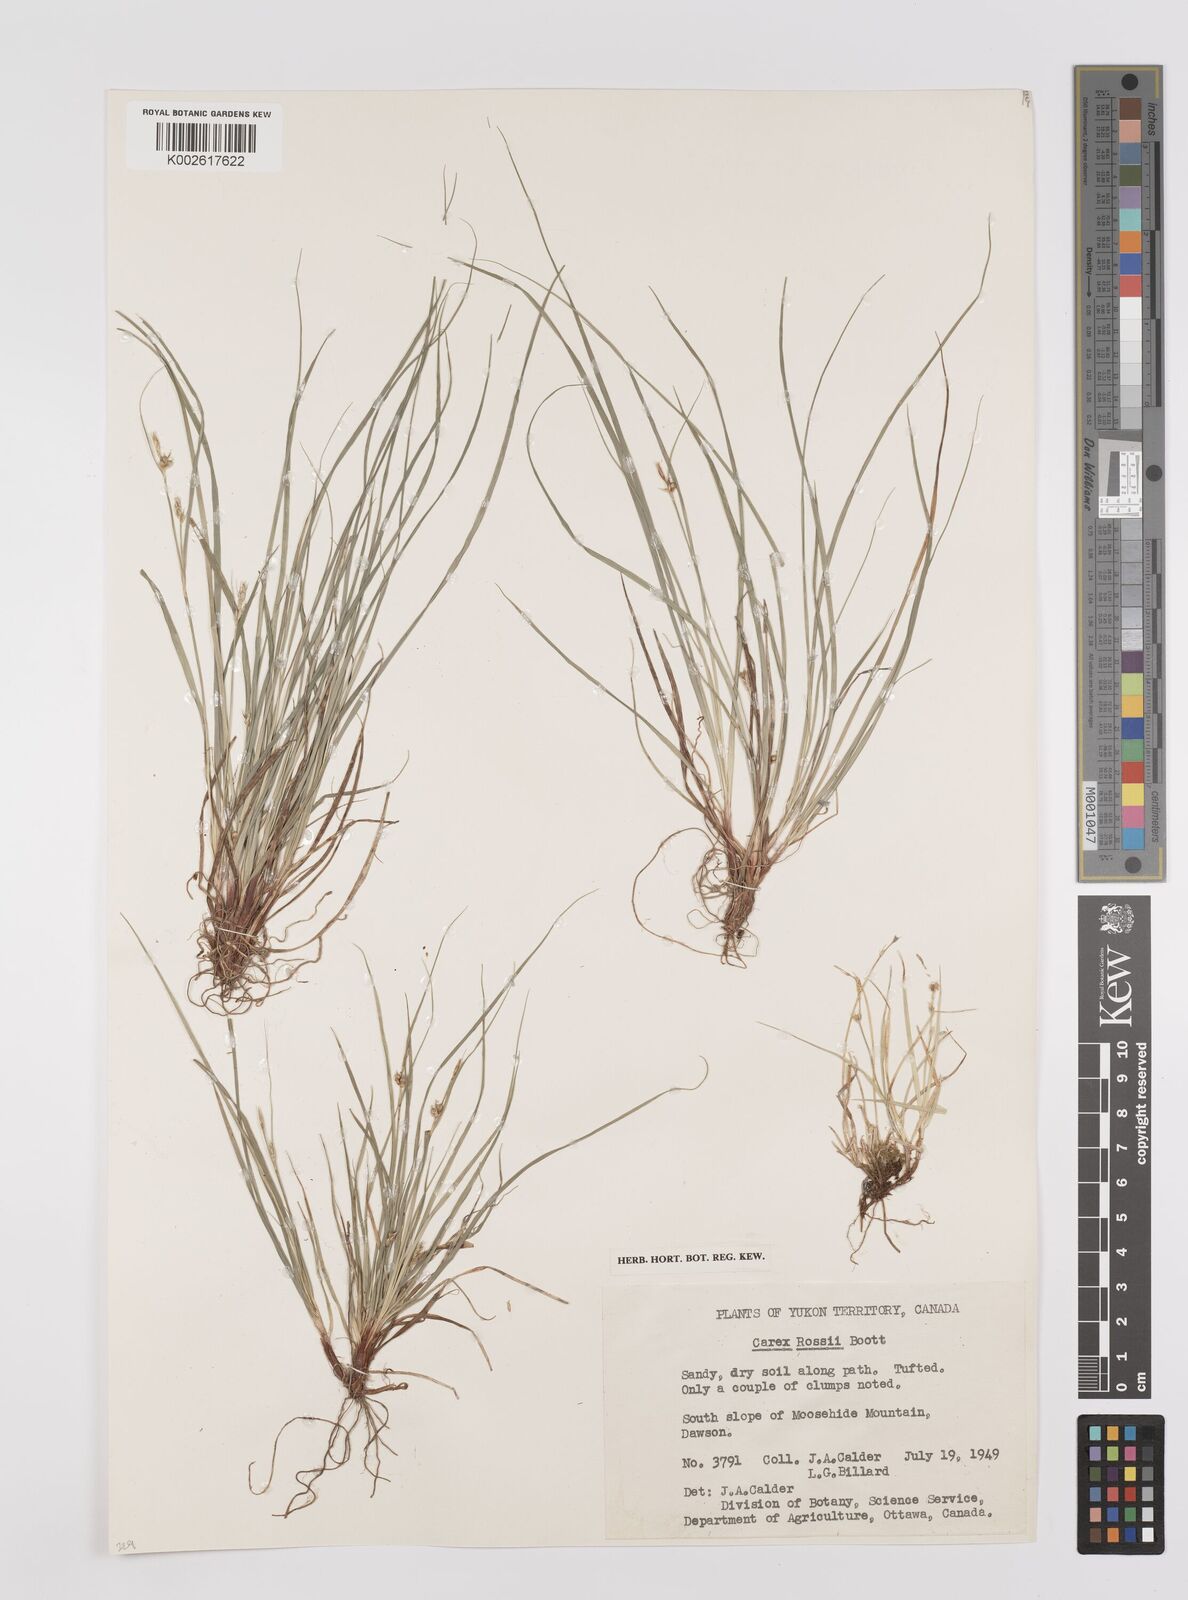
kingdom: Plantae
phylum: Tracheophyta
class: Liliopsida
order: Poales
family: Cyperaceae
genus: Carex
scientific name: Carex rossii
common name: Ross' sedge
